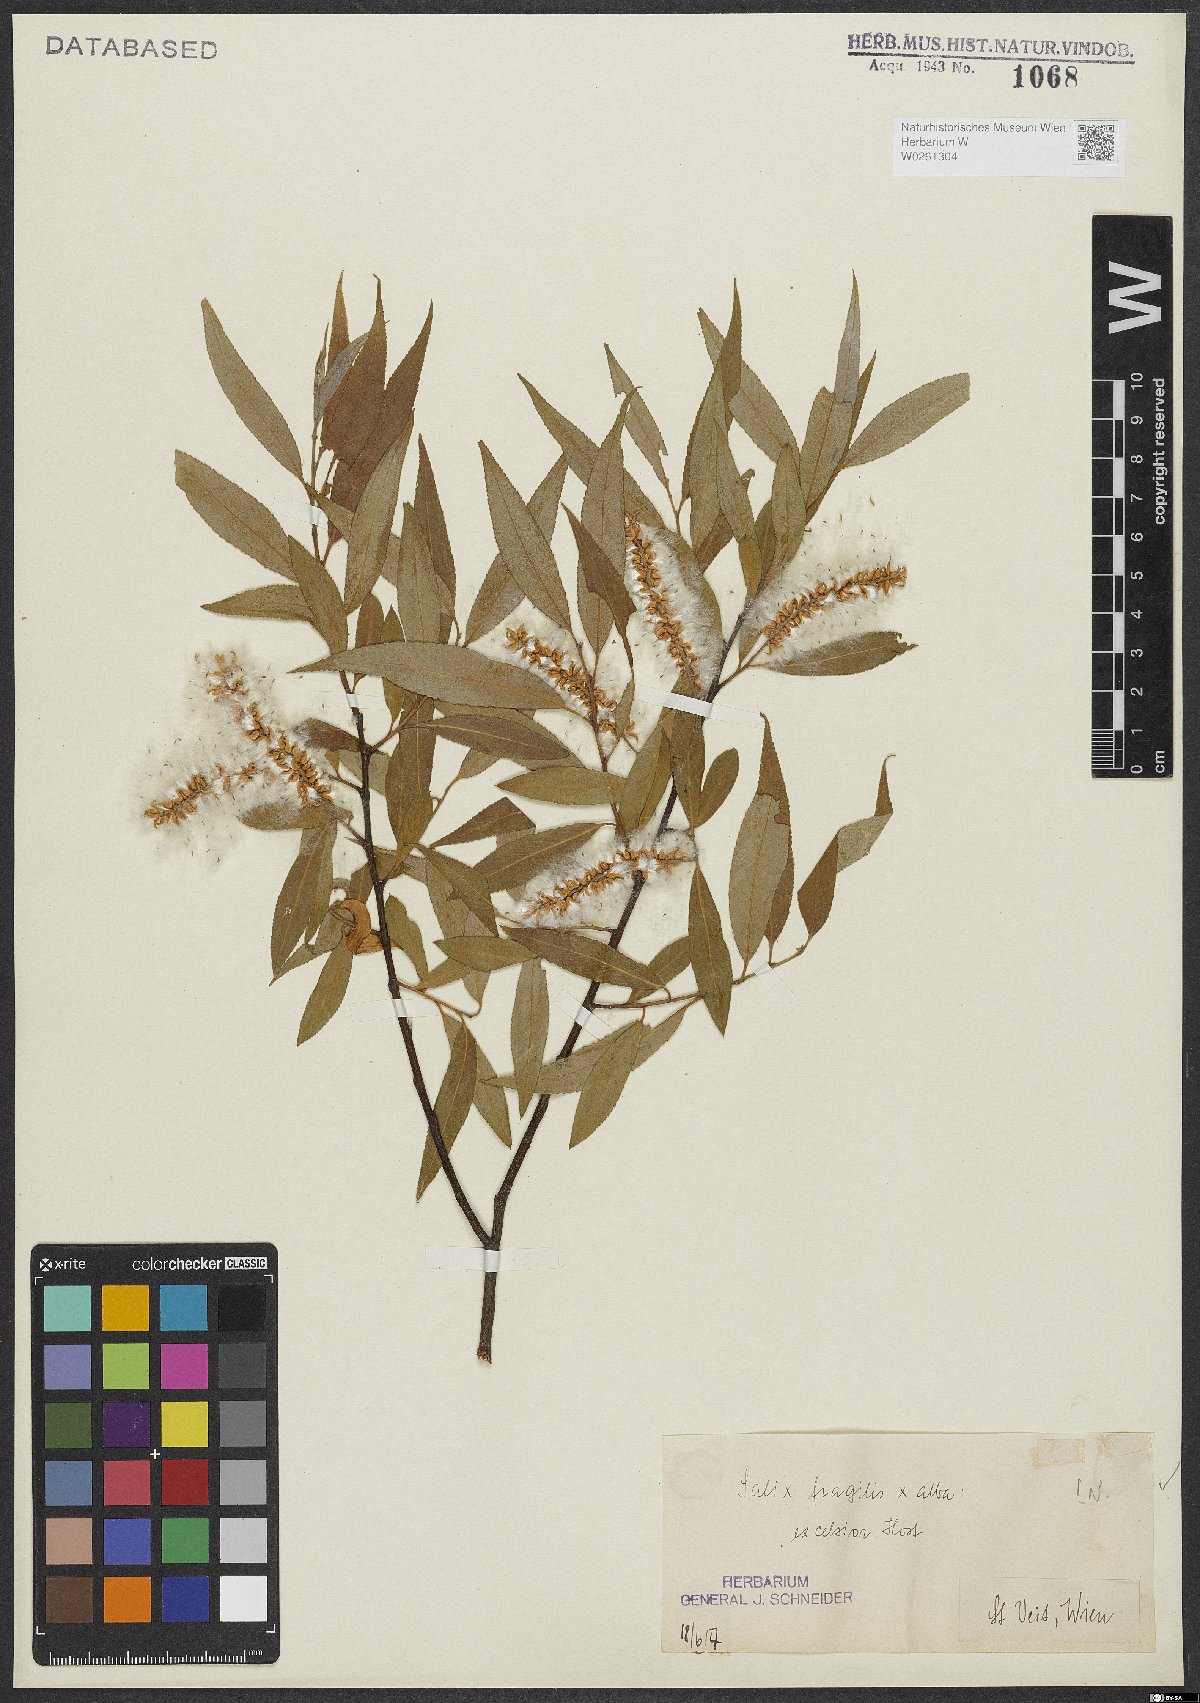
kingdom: Plantae
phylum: Tracheophyta
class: Magnoliopsida
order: Malpighiales
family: Salicaceae
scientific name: Salicaceae
